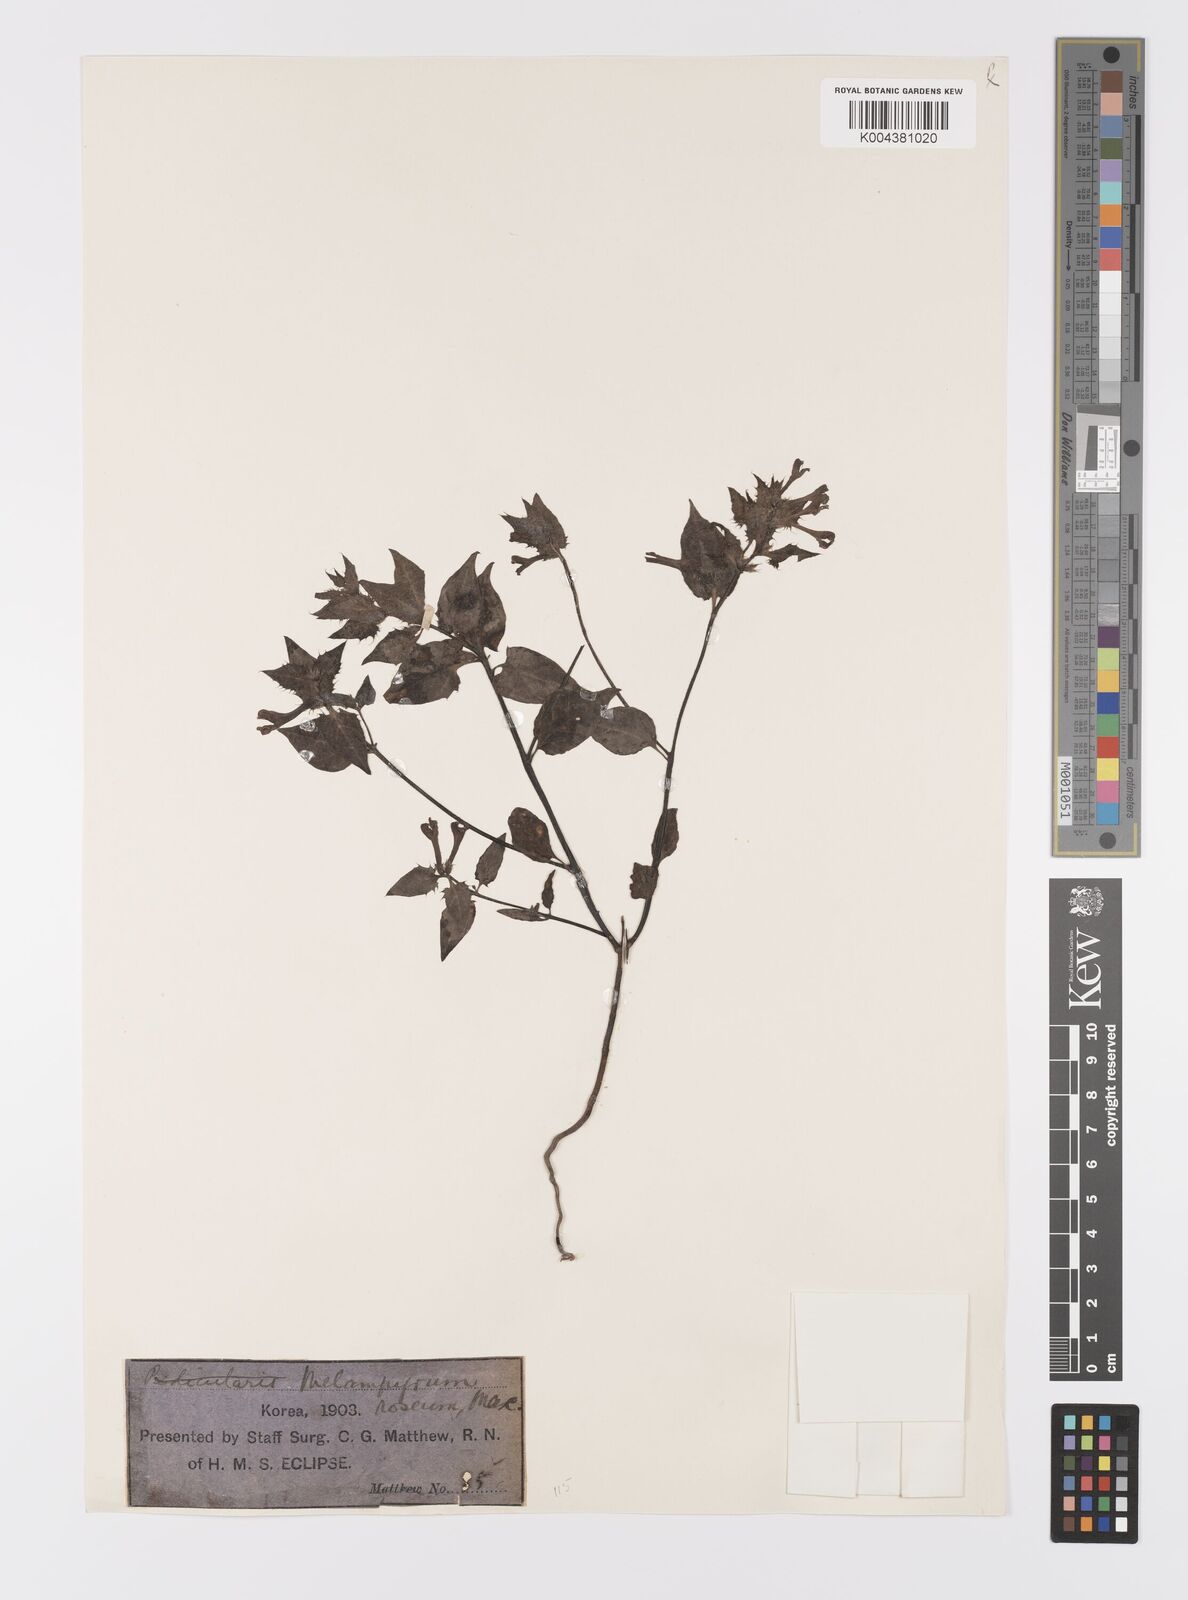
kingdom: Plantae
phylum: Tracheophyta
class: Magnoliopsida
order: Lamiales
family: Orobanchaceae
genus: Melampyrum
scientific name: Melampyrum roseum
